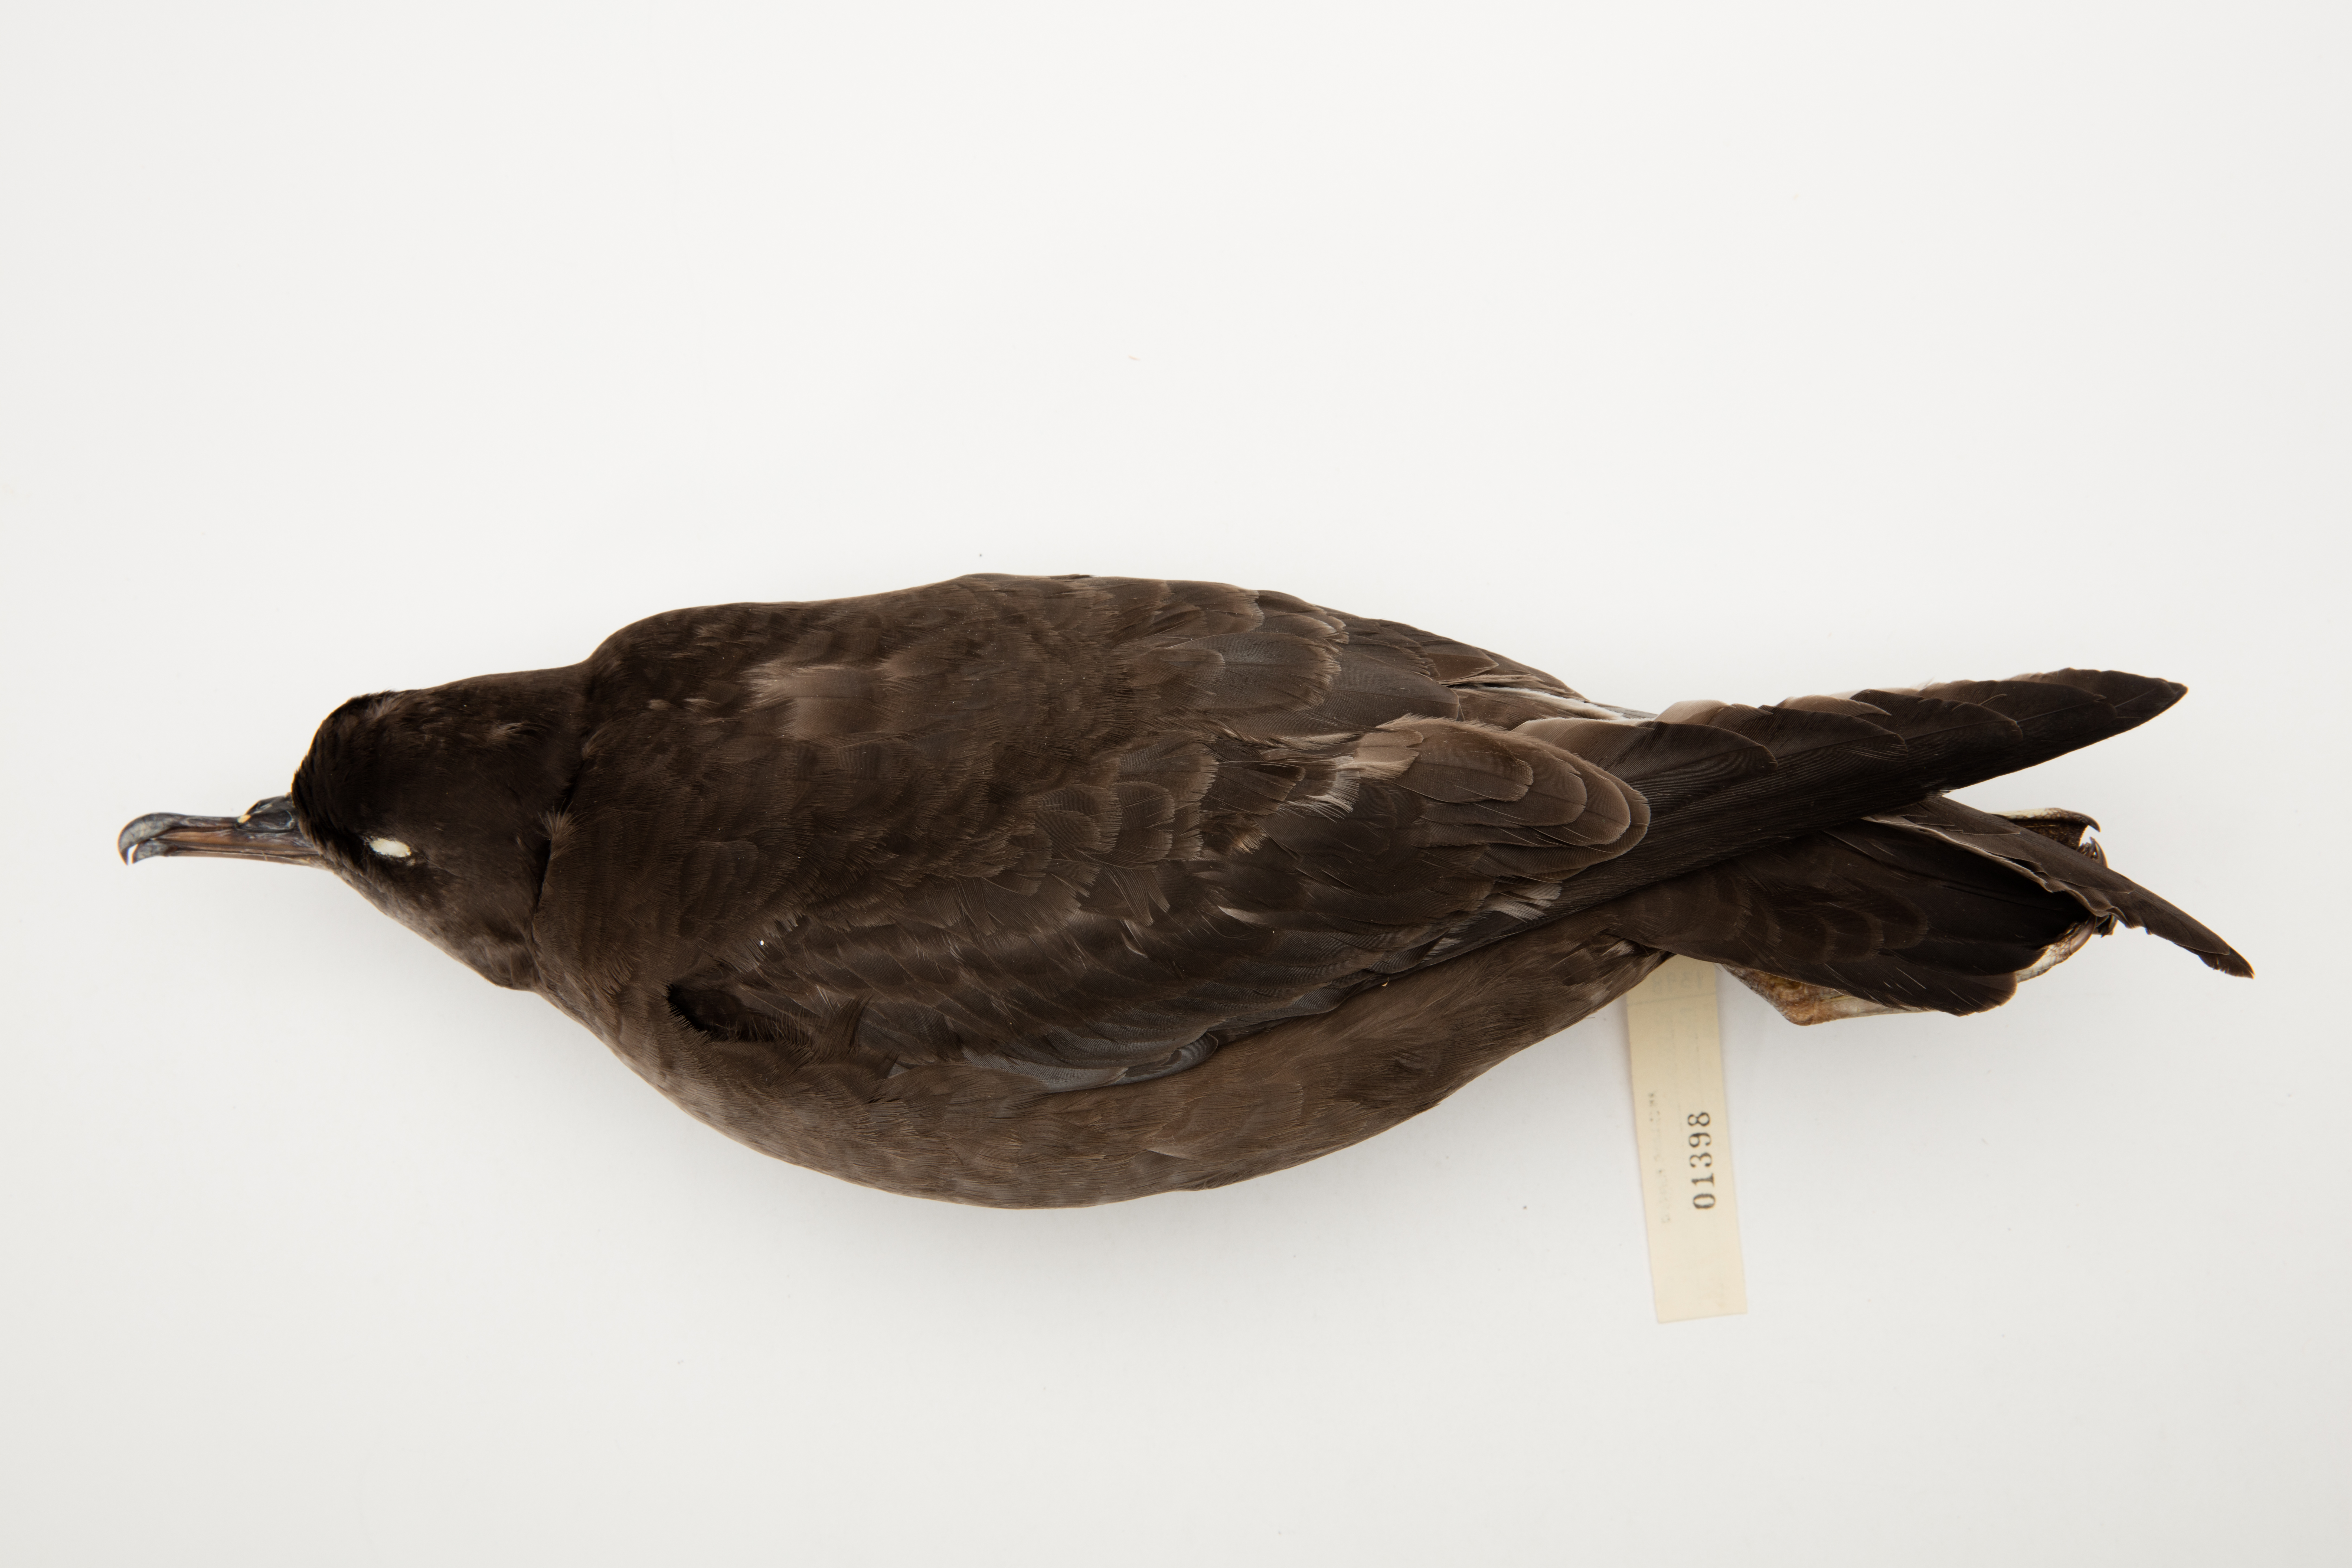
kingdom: Animalia
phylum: Chordata
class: Aves
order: Procellariiformes
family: Procellariidae
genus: Puffinus
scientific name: Puffinus tenuirostris
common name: Short-tailed shearwater
